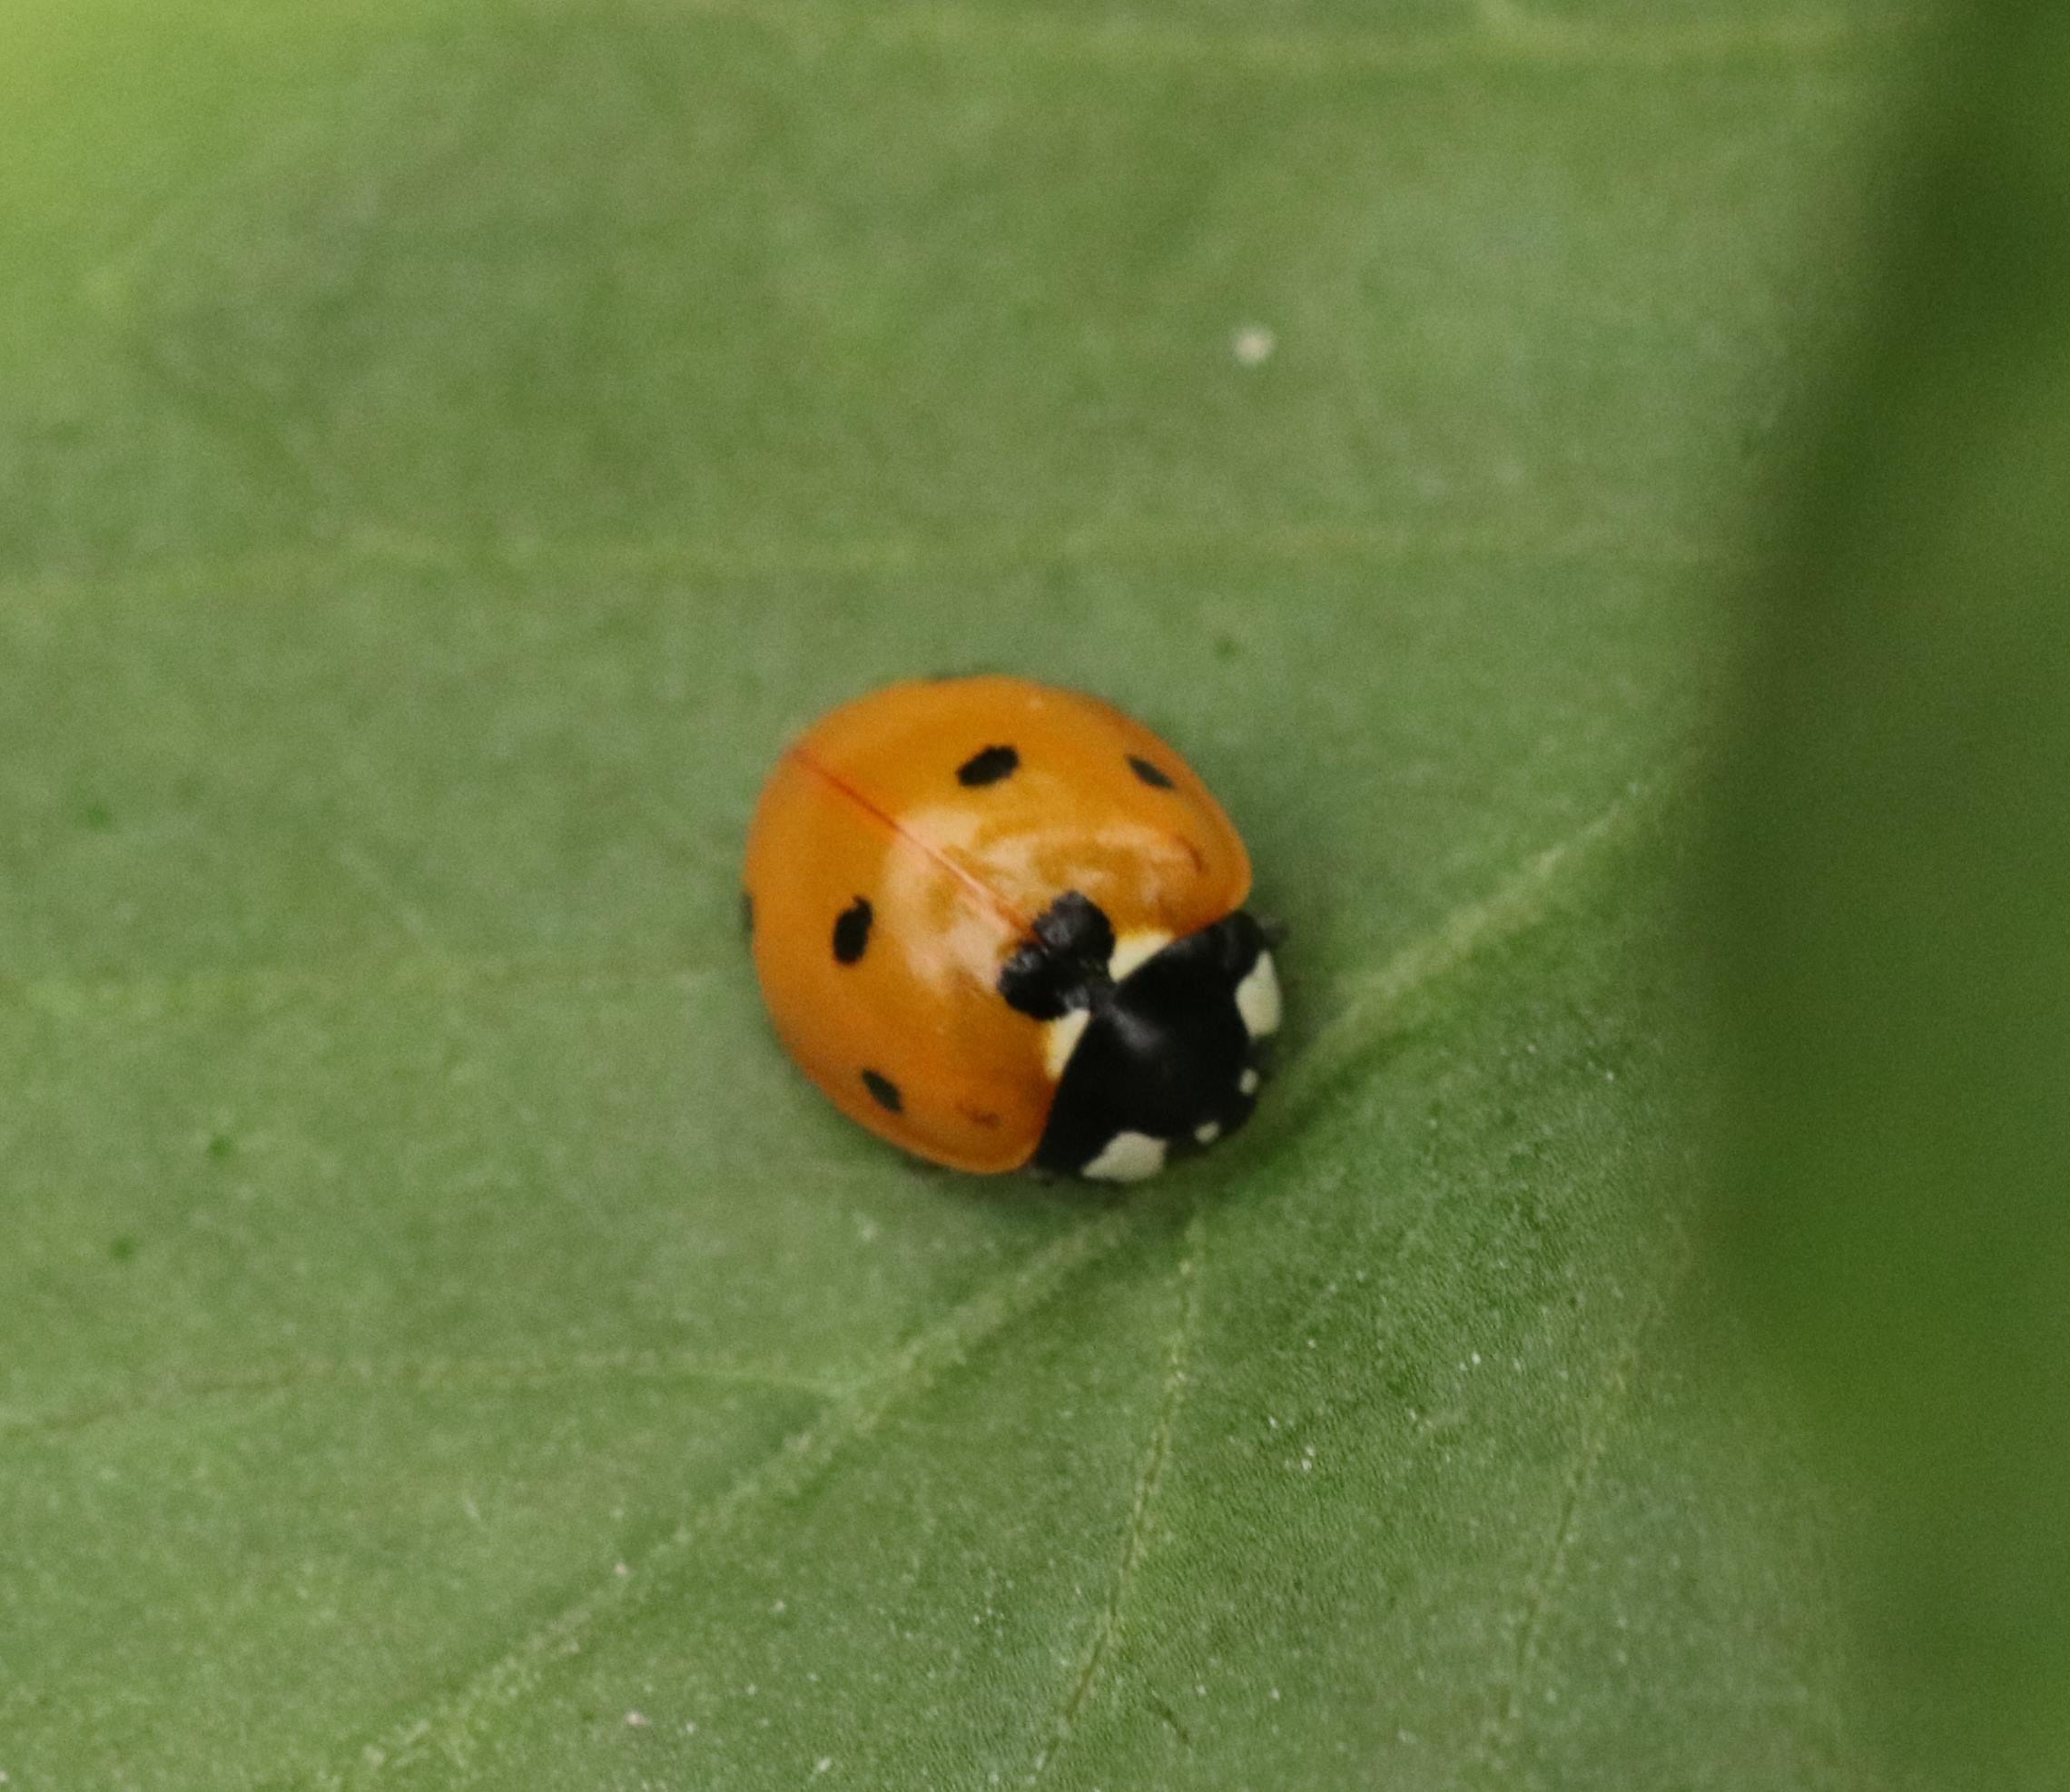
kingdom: Animalia
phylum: Arthropoda
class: Insecta
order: Coleoptera
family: Coccinellidae
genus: Coccinella
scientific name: Coccinella septempunctata
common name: Syvplettet mariehøne
